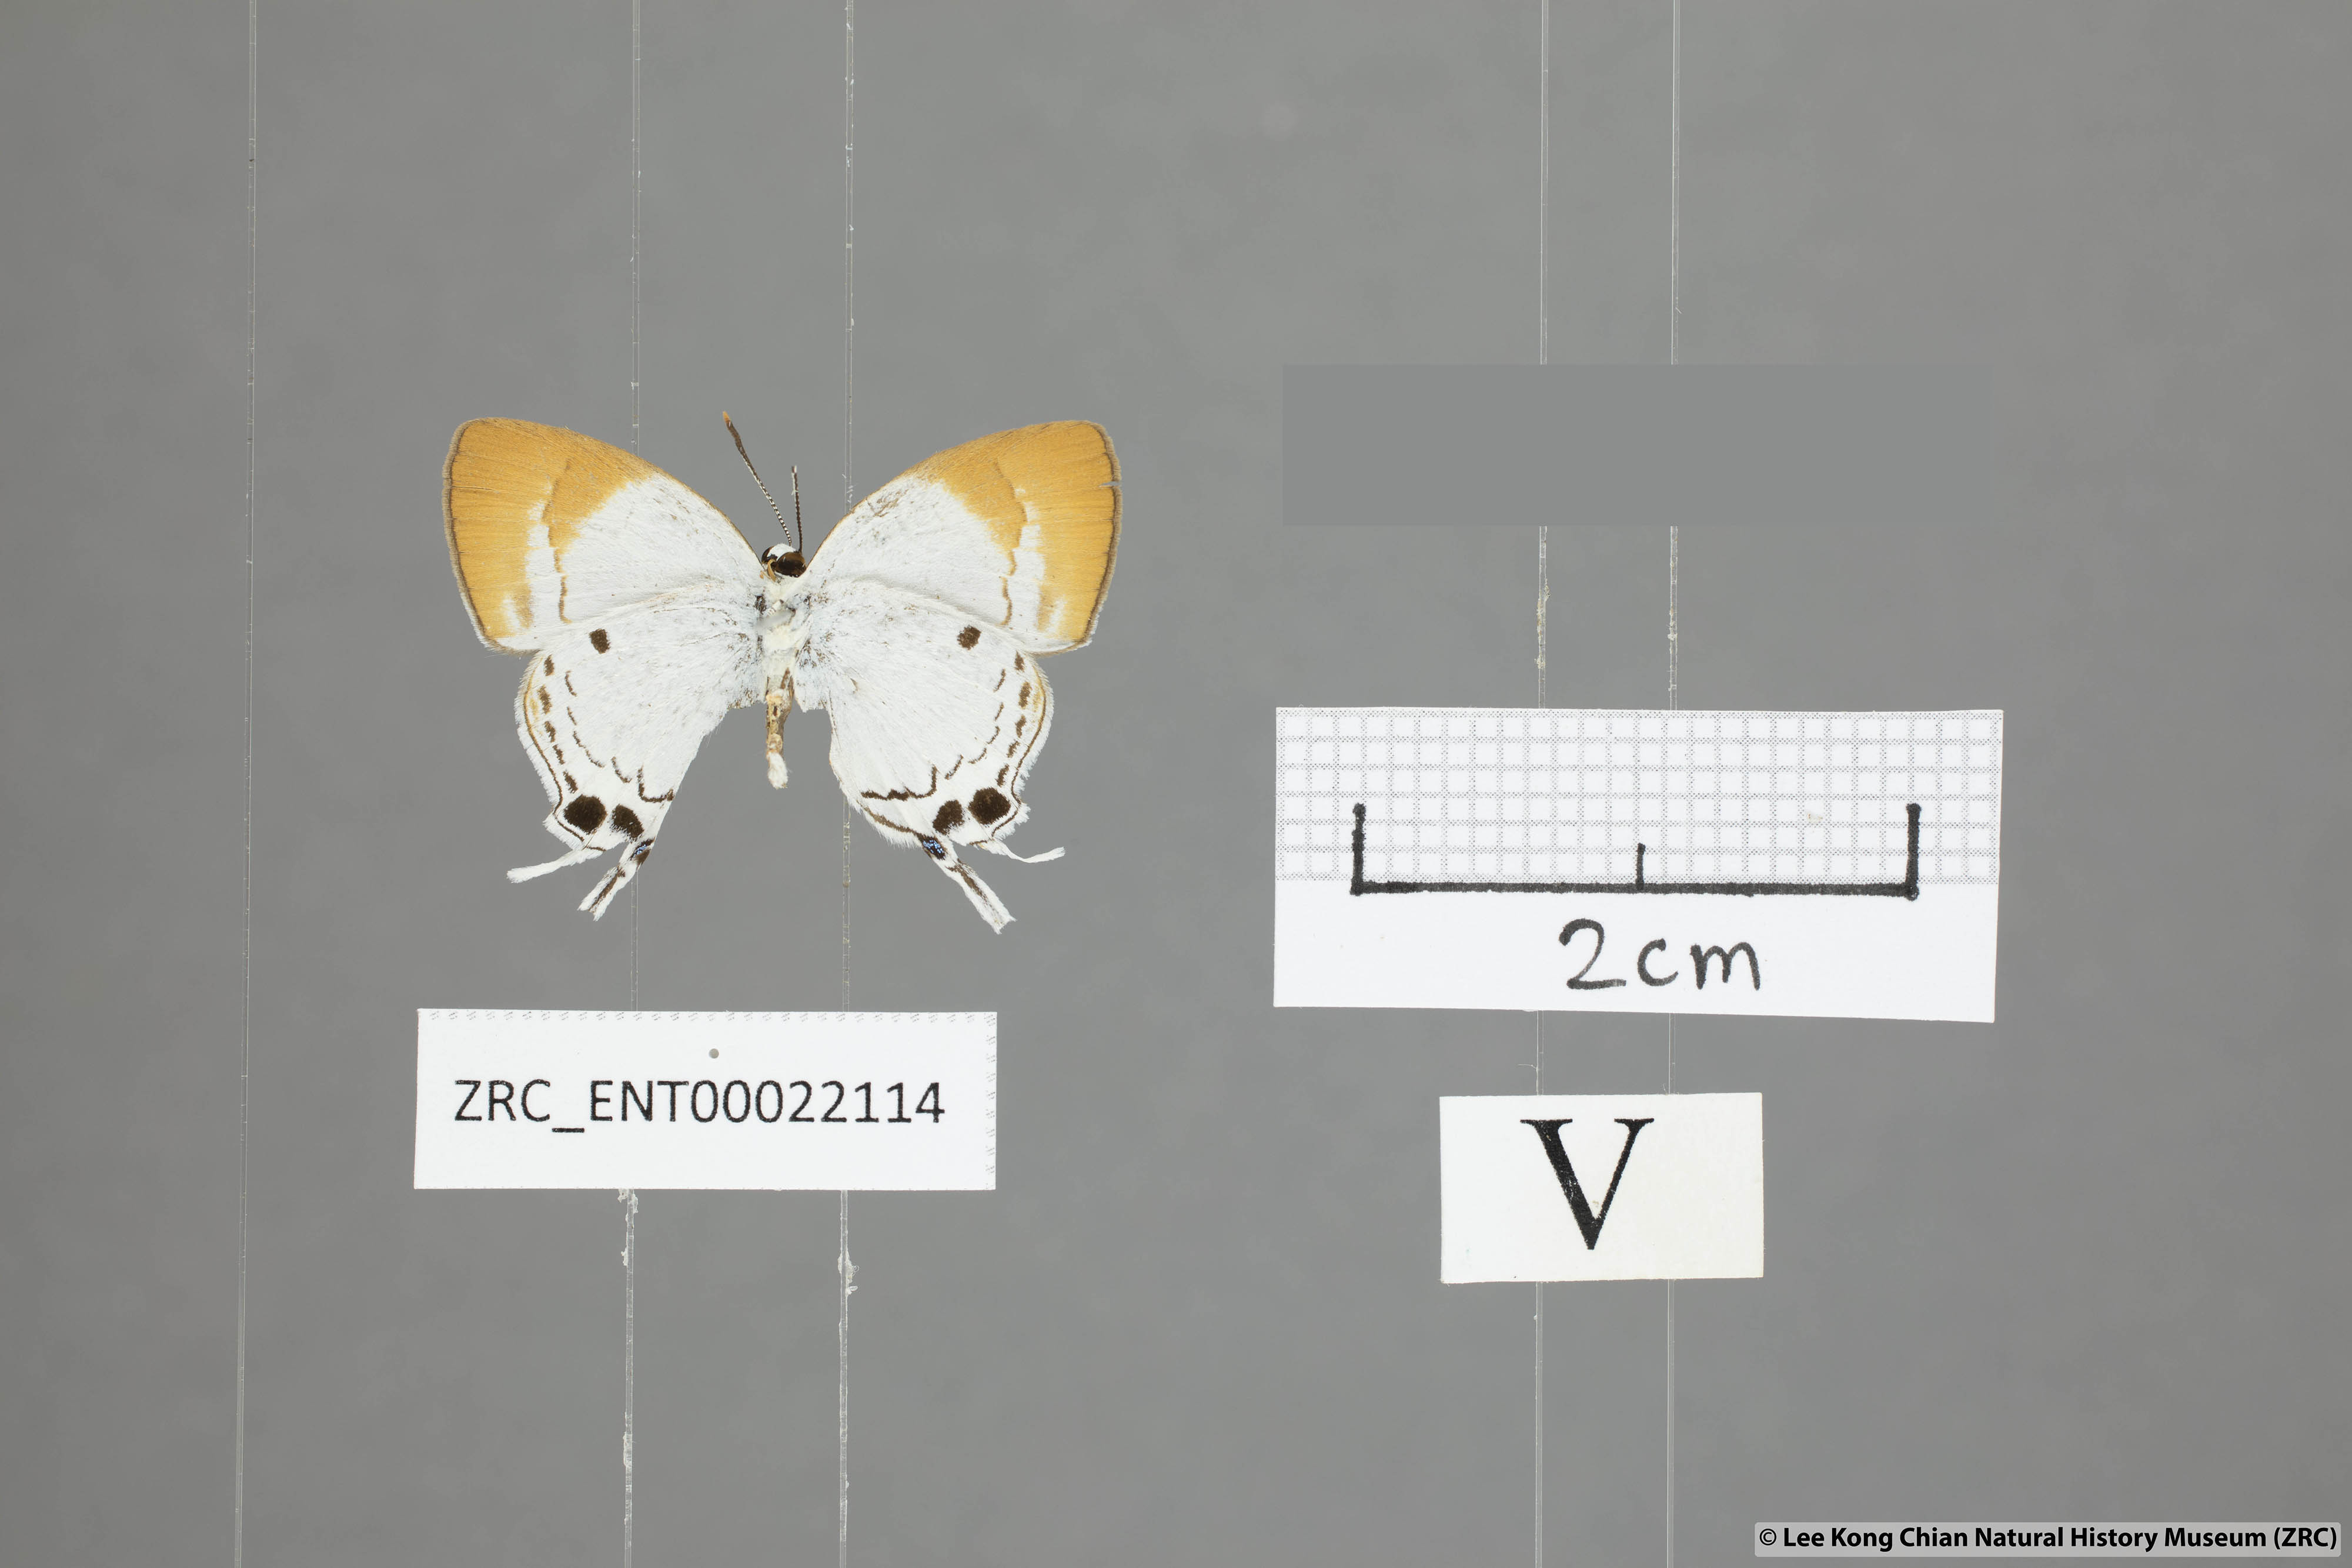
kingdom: Animalia
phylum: Arthropoda
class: Insecta
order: Lepidoptera
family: Lycaenidae
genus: Suasa
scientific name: Suasa lisides
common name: Red imperial
